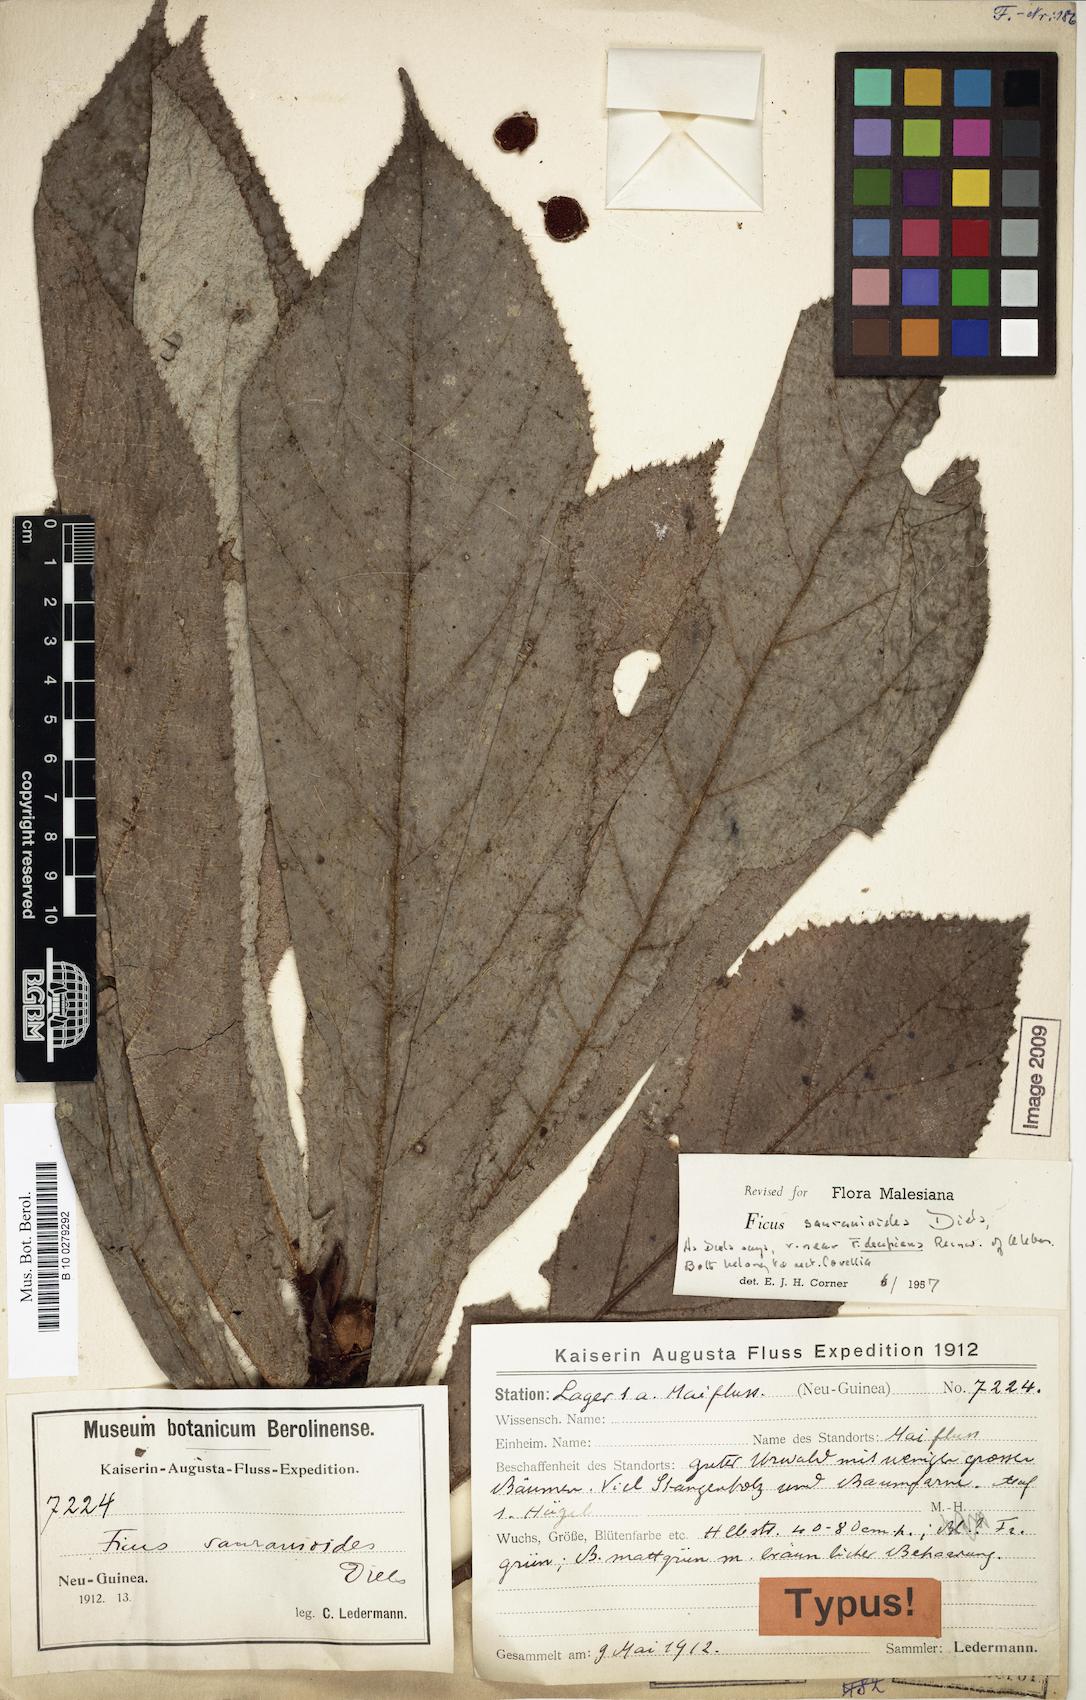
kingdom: Plantae
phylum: Tracheophyta
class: Magnoliopsida
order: Rosales
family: Moraceae
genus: Ficus
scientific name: Ficus saurauioides
